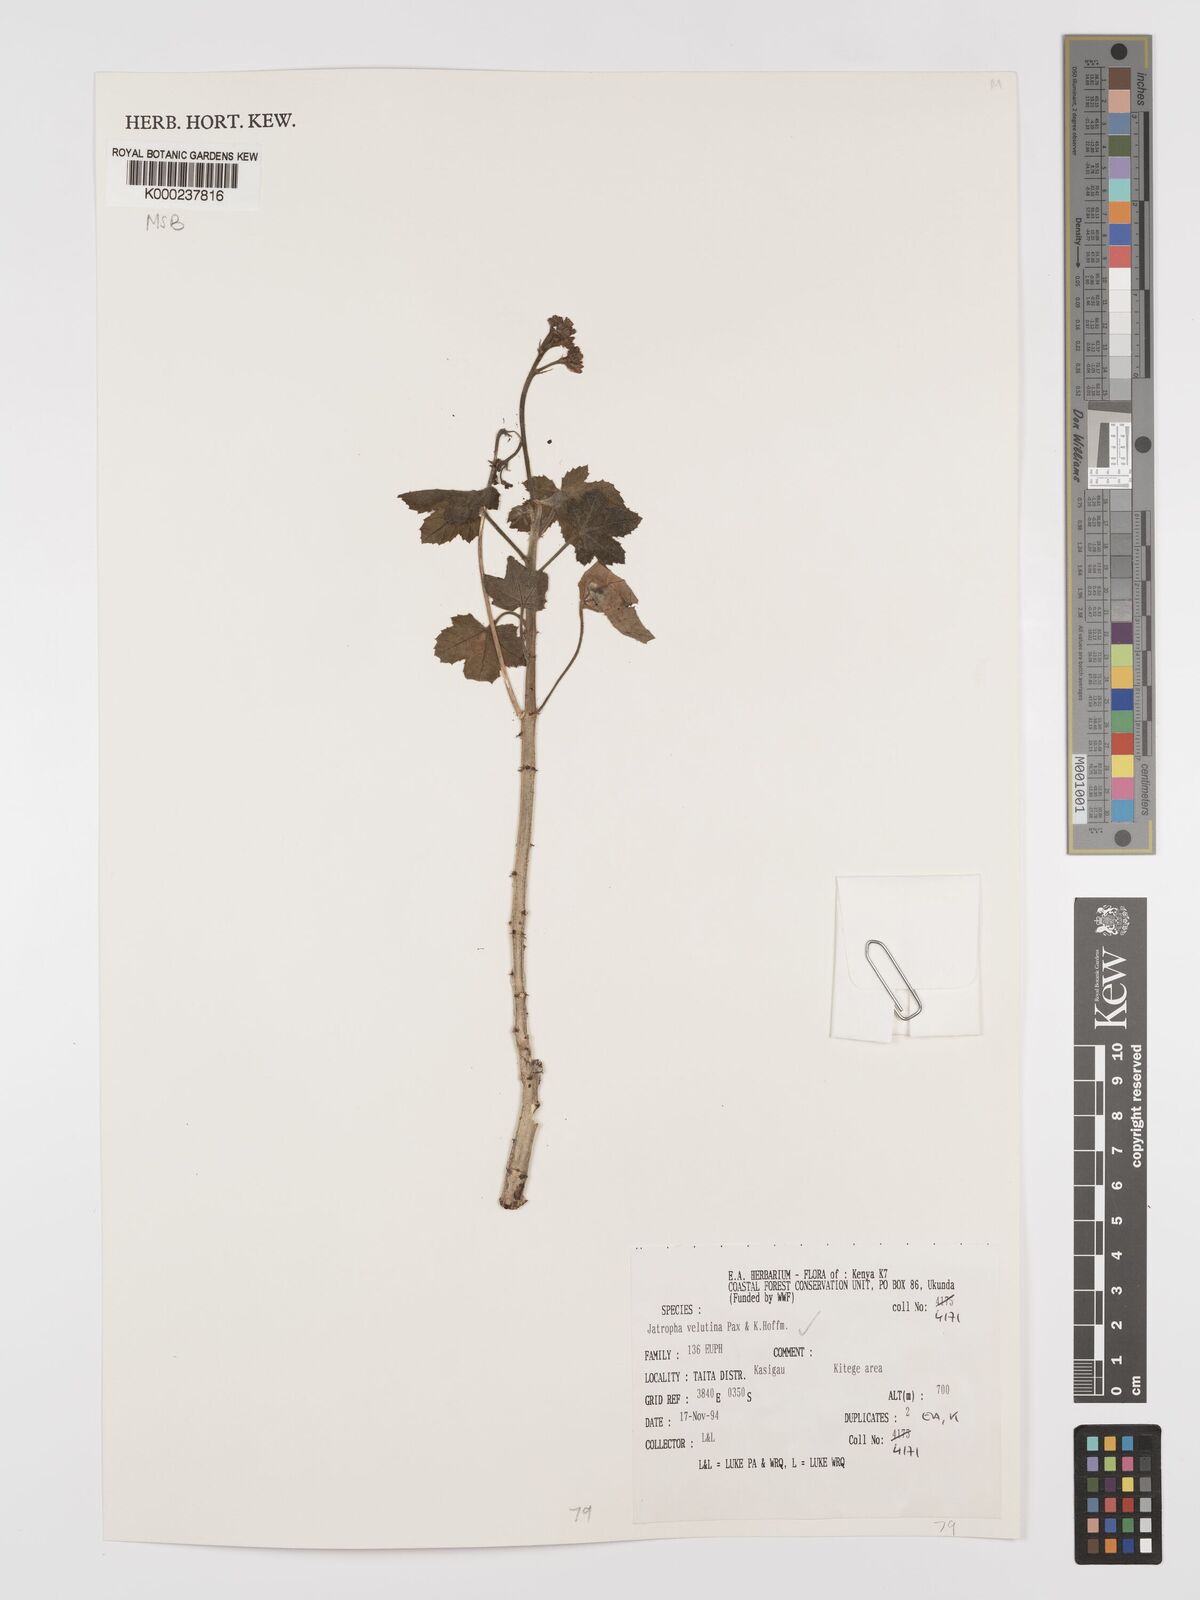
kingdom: Plantae
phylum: Tracheophyta
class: Magnoliopsida
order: Malpighiales
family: Euphorbiaceae
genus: Jatropha
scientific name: Jatropha velutina
